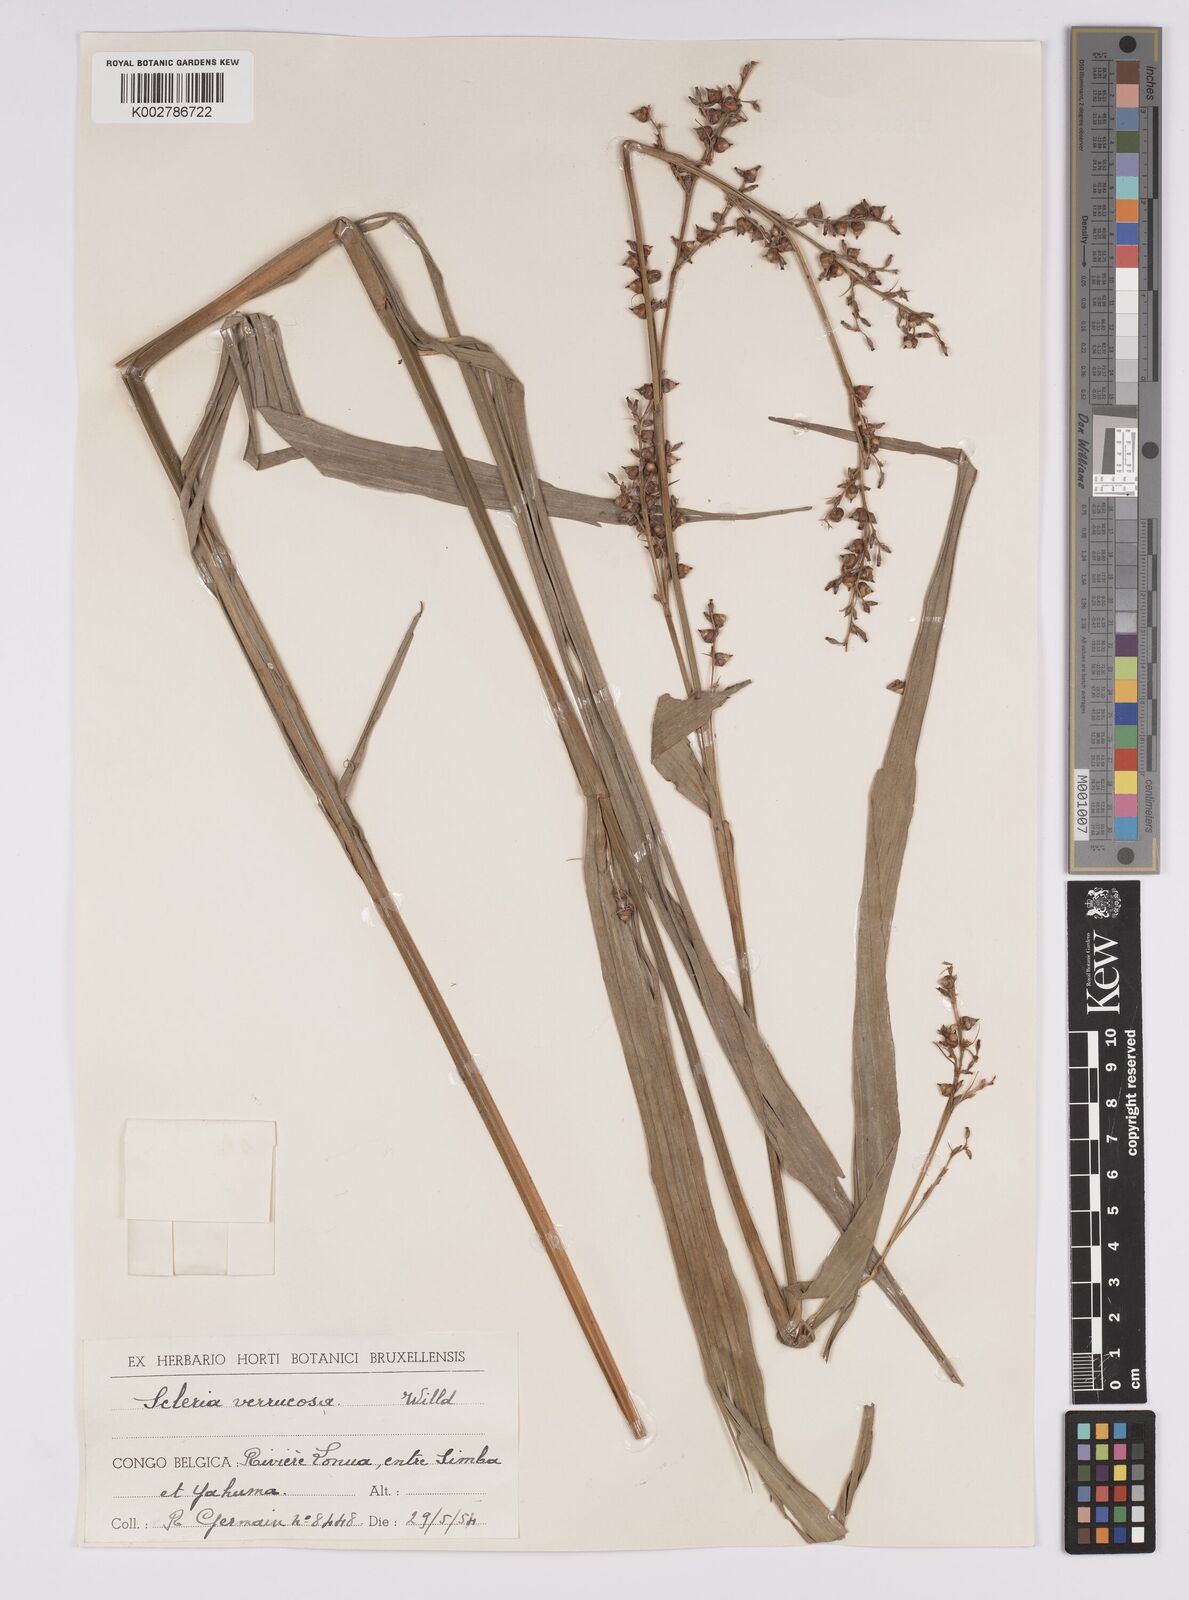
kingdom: Plantae
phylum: Tracheophyta
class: Liliopsida
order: Poales
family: Cyperaceae
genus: Scleria
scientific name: Scleria verrucosa
